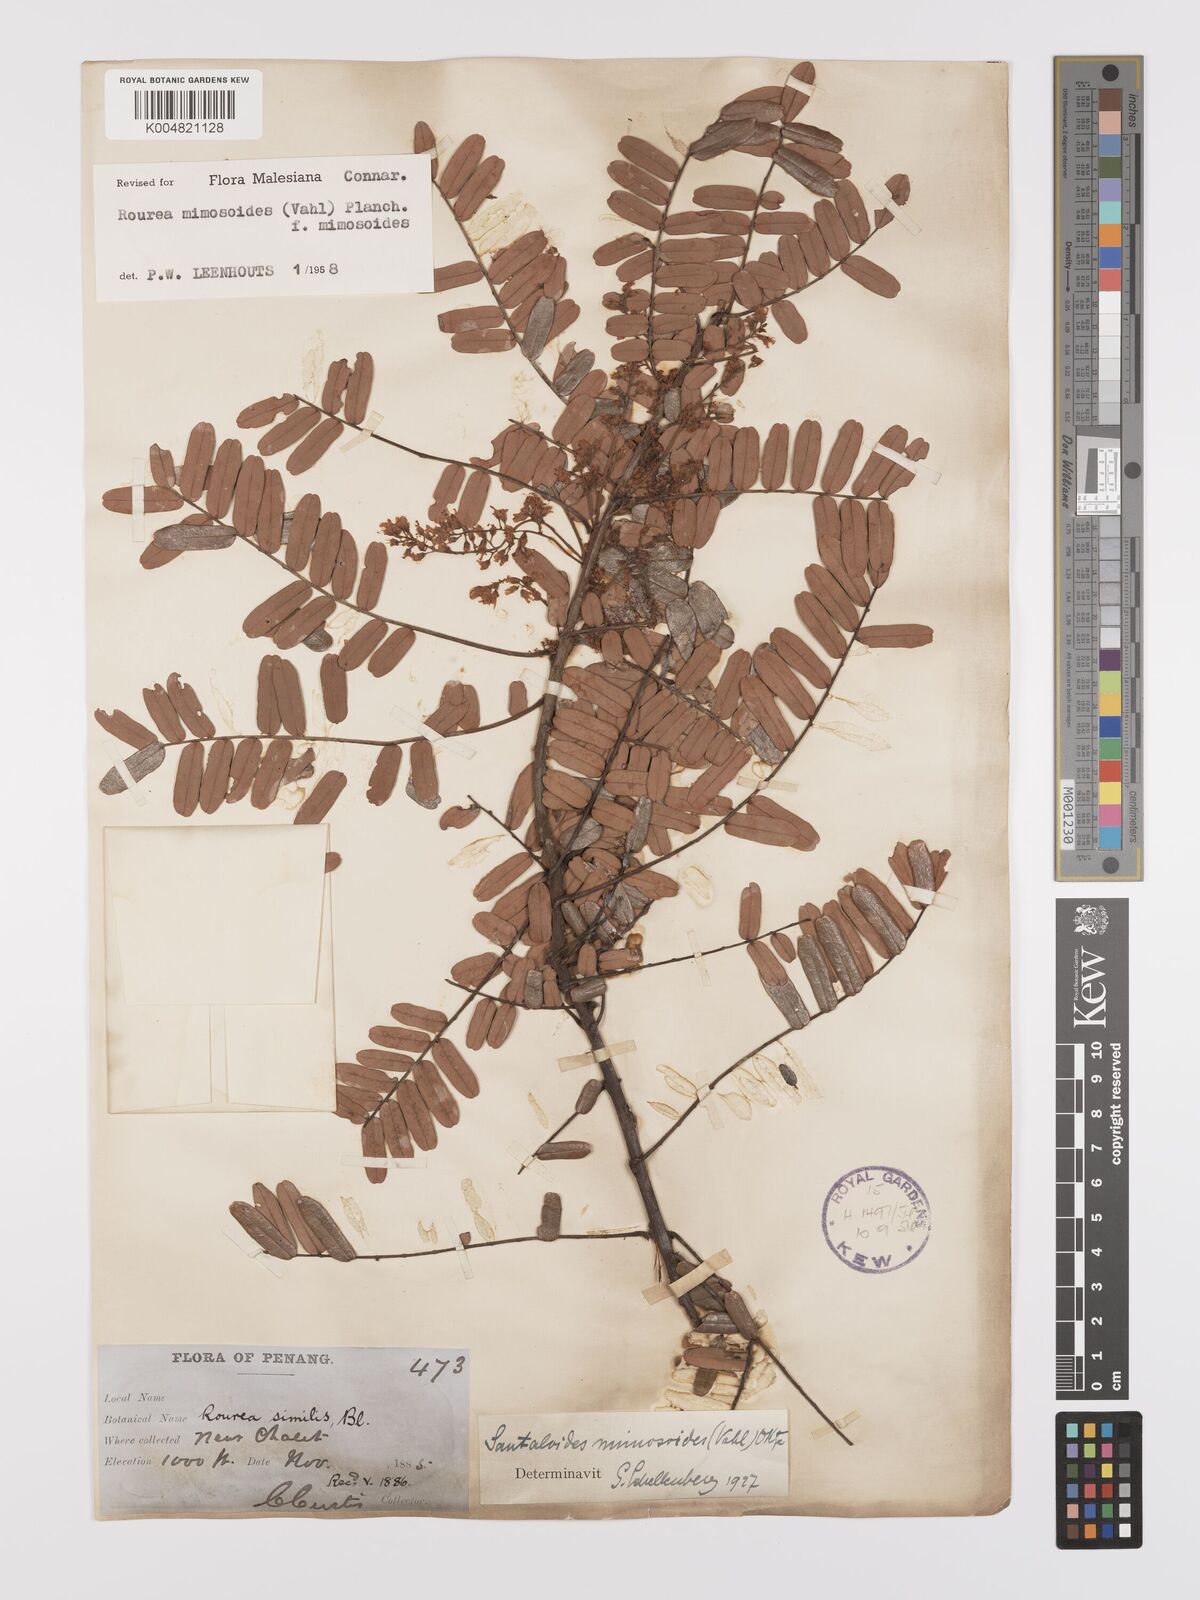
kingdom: Plantae
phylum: Tracheophyta
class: Magnoliopsida
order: Oxalidales
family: Connaraceae
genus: Rourea
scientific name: Rourea mimosoides
